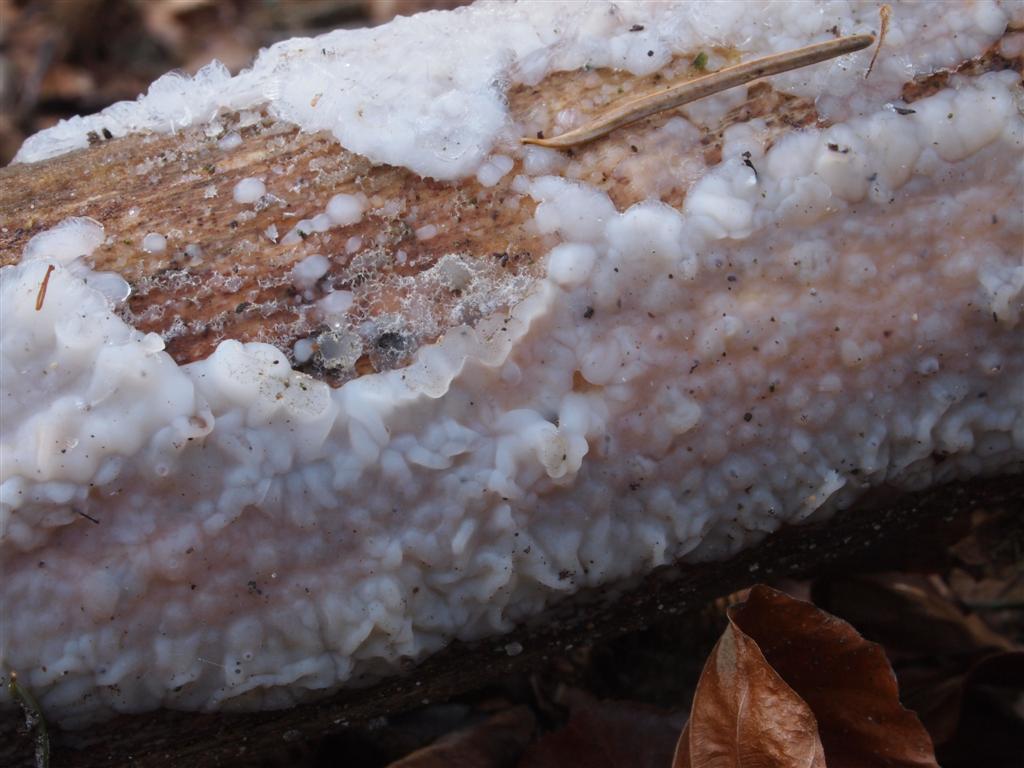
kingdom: Fungi
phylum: Basidiomycota
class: Agaricomycetes
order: Auriculariales
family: Auriculariaceae
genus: Exidia
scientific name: Exidia thuretiana
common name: hvidlig bævretop
